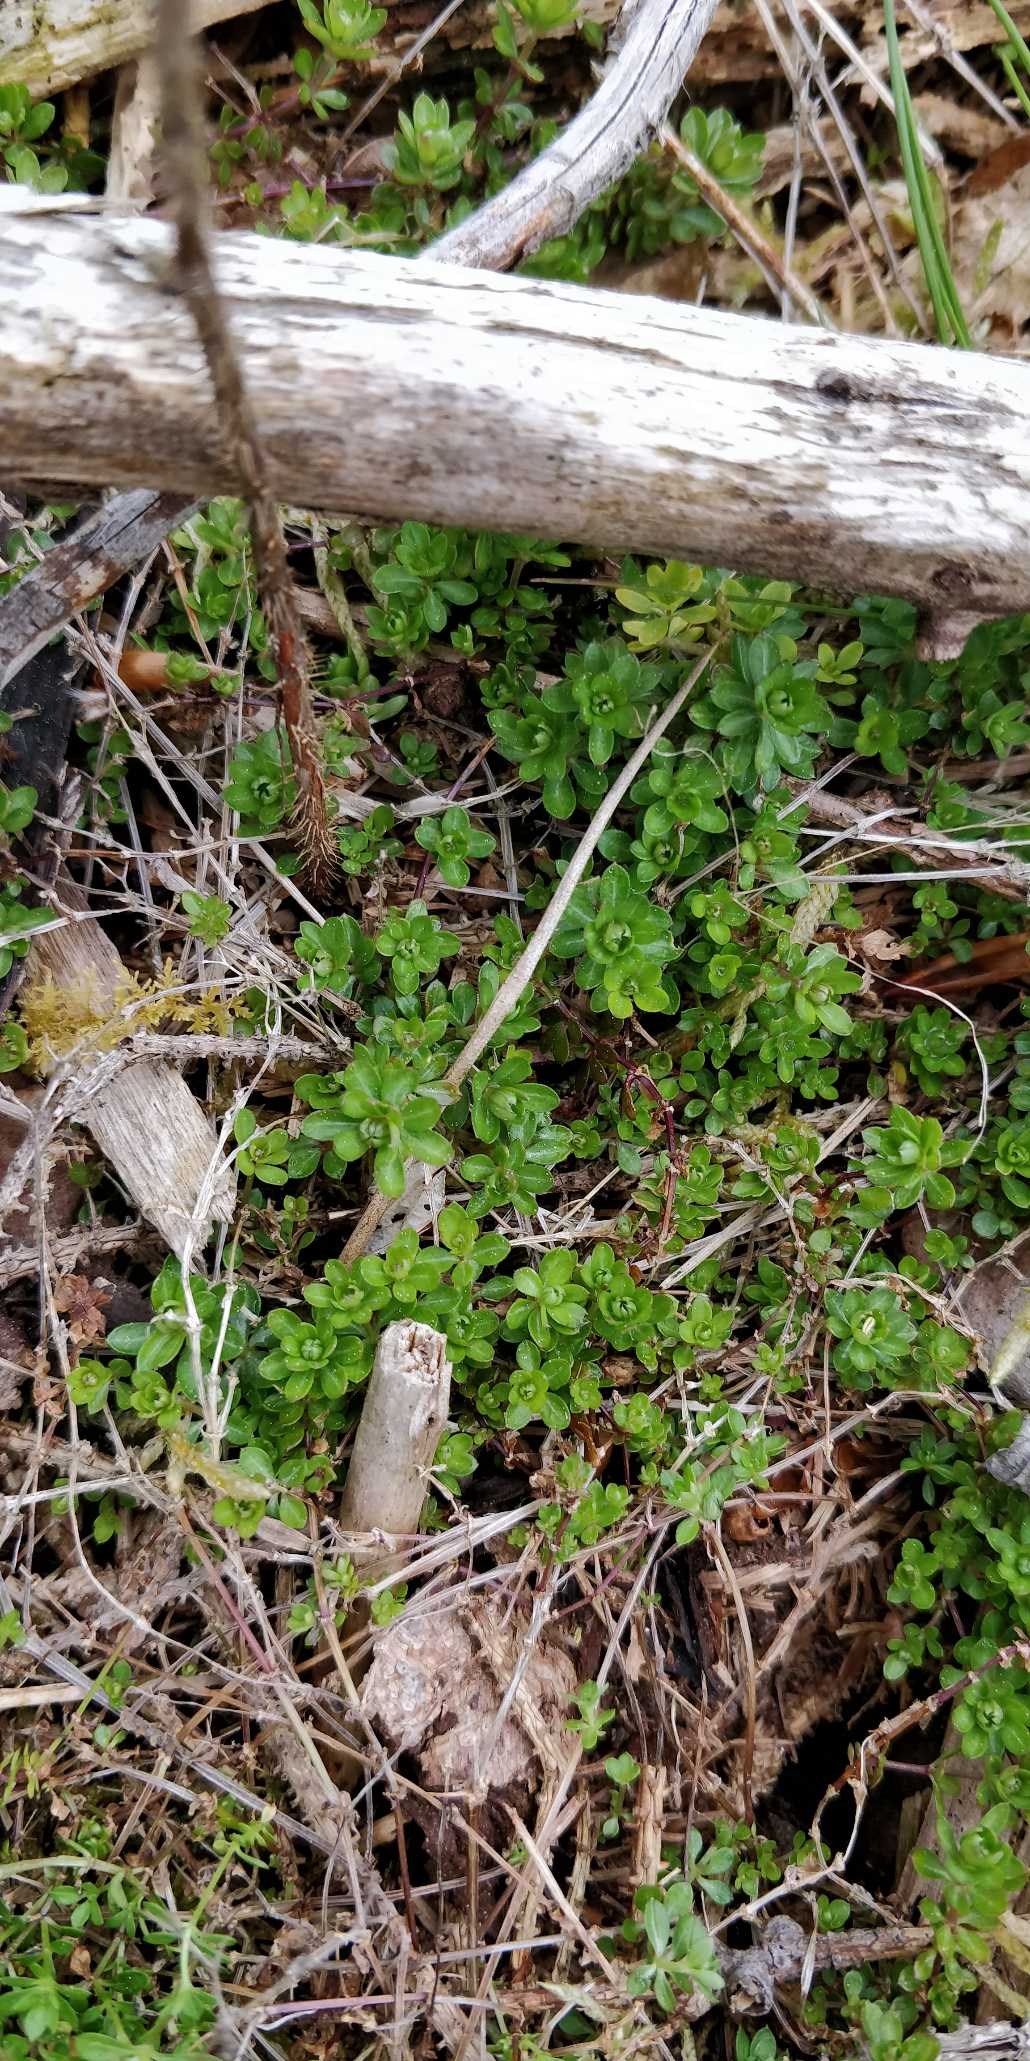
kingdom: Plantae
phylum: Tracheophyta
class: Magnoliopsida
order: Gentianales
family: Rubiaceae
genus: Galium
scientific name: Galium saxatile
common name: Lyng-snerre
